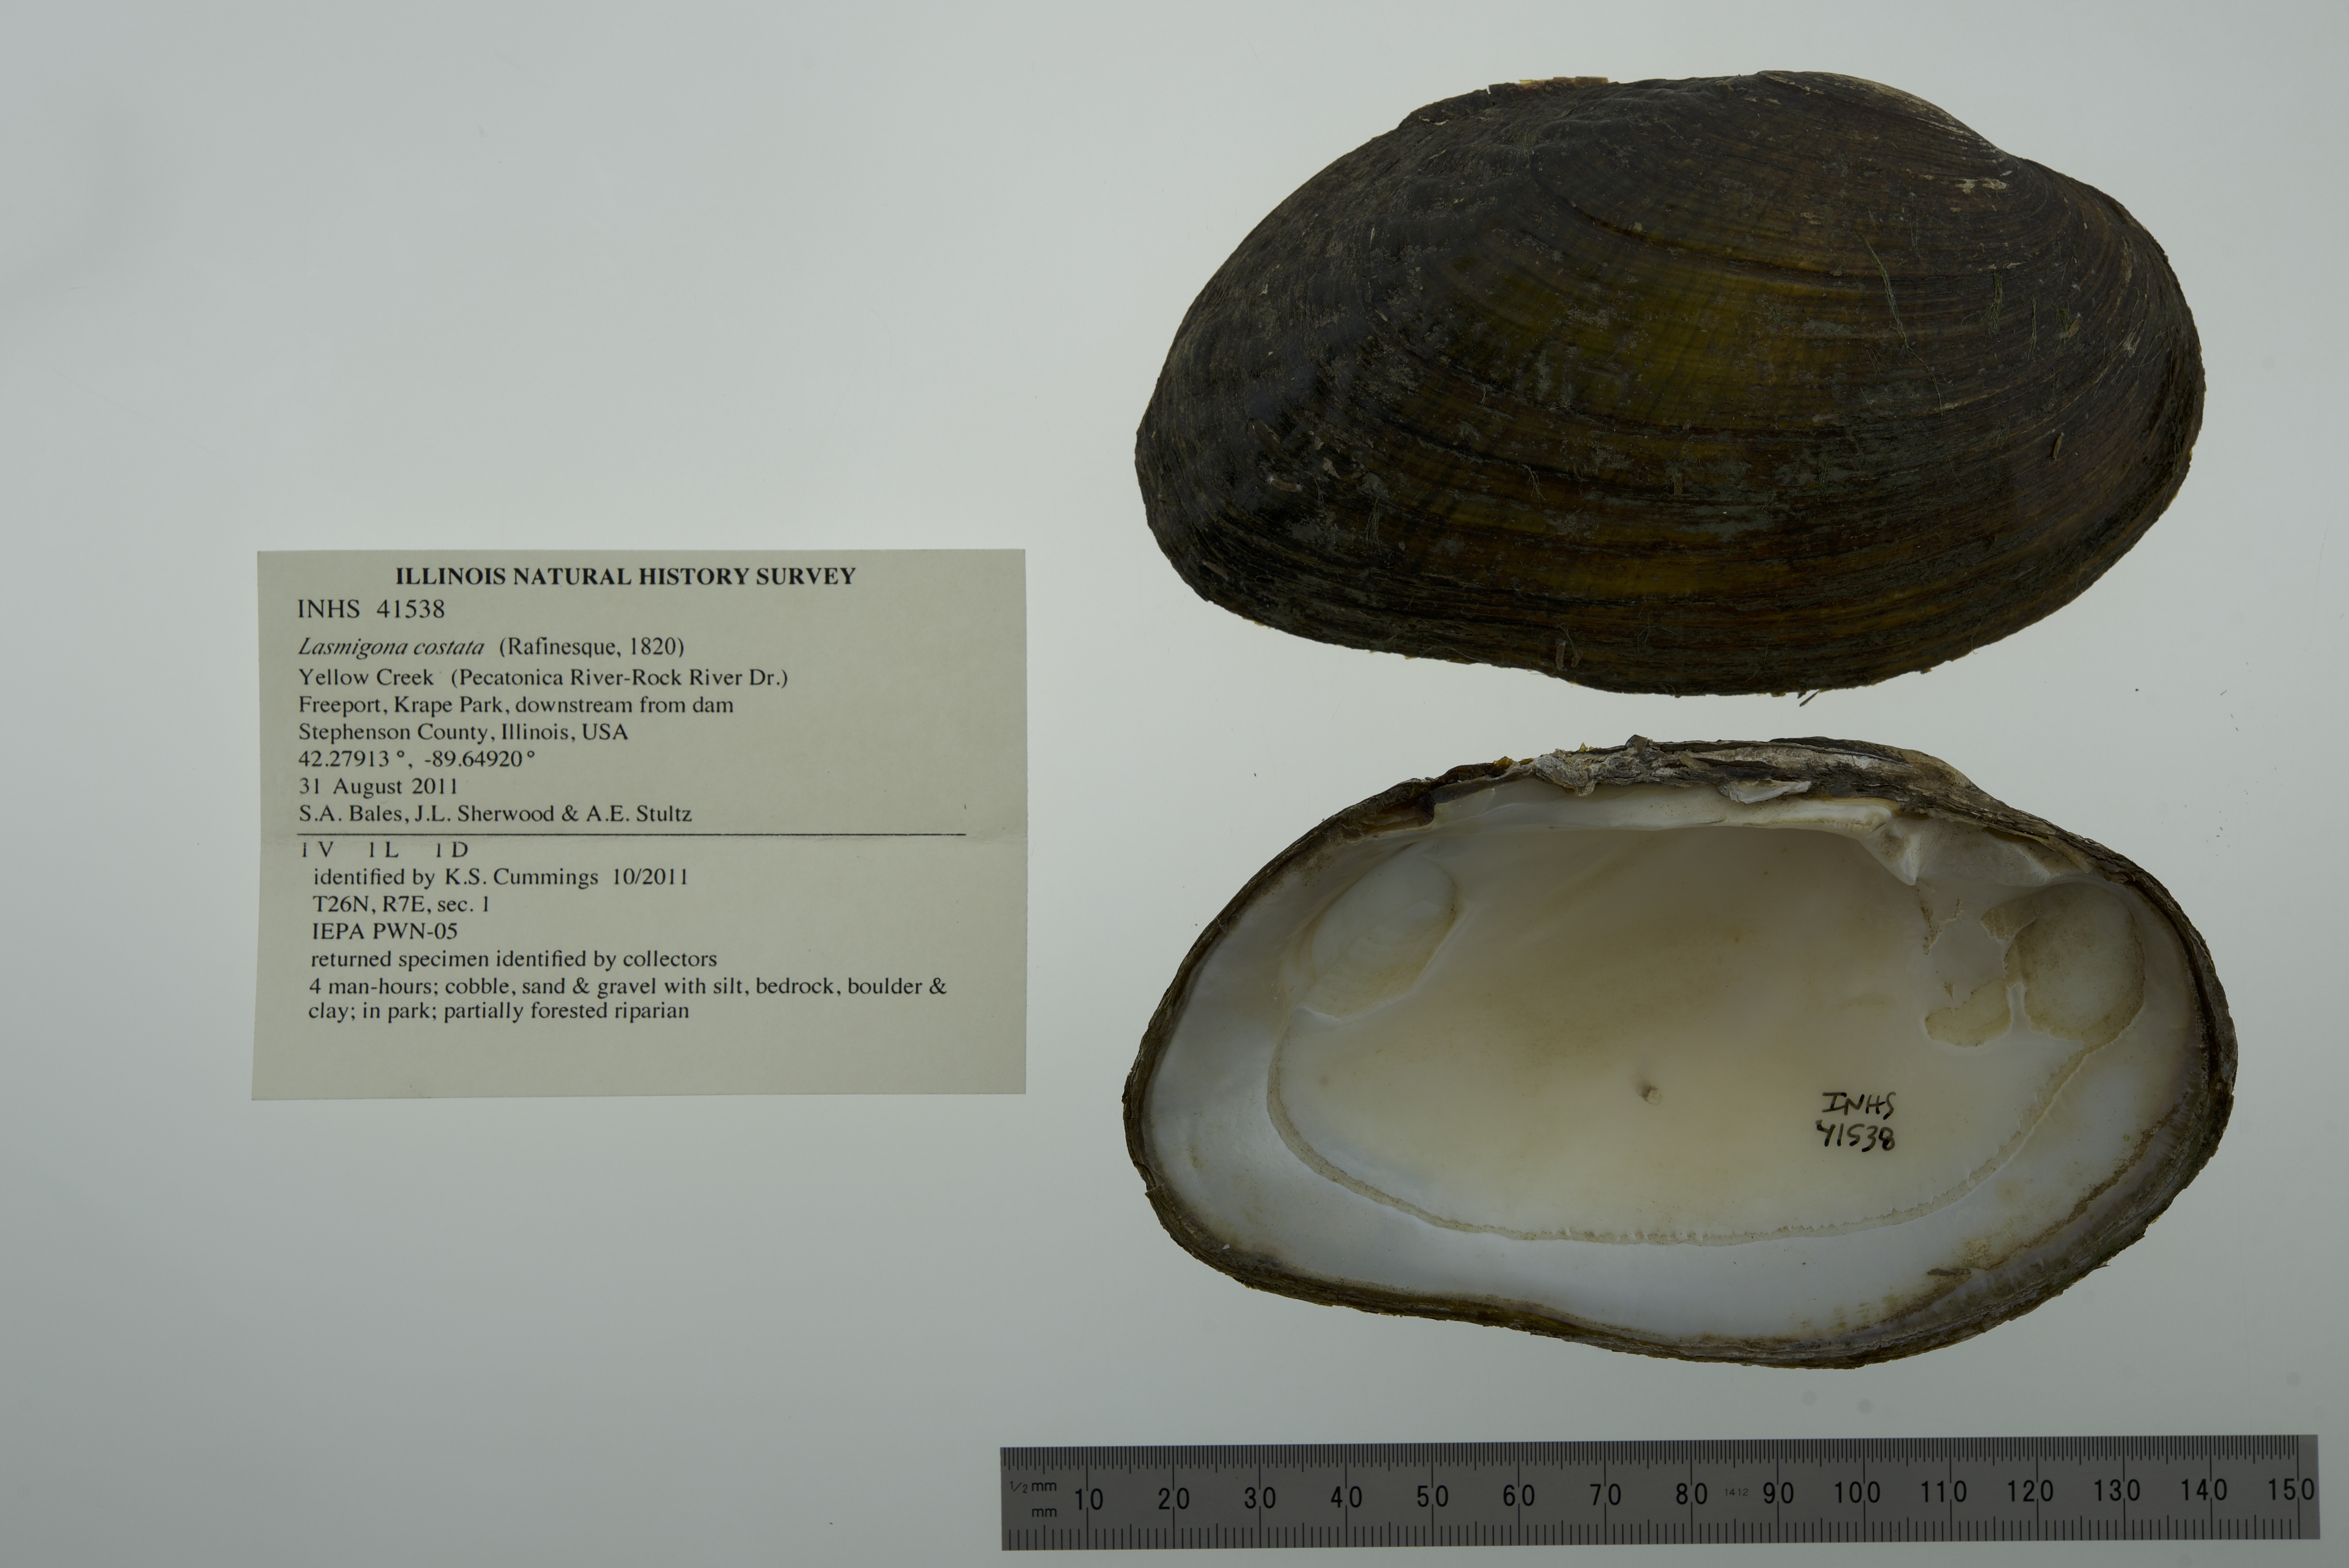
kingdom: Animalia
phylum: Mollusca
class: Bivalvia
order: Unionida
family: Unionidae
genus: Lasmigona
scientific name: Lasmigona costata
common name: Flutedshell
